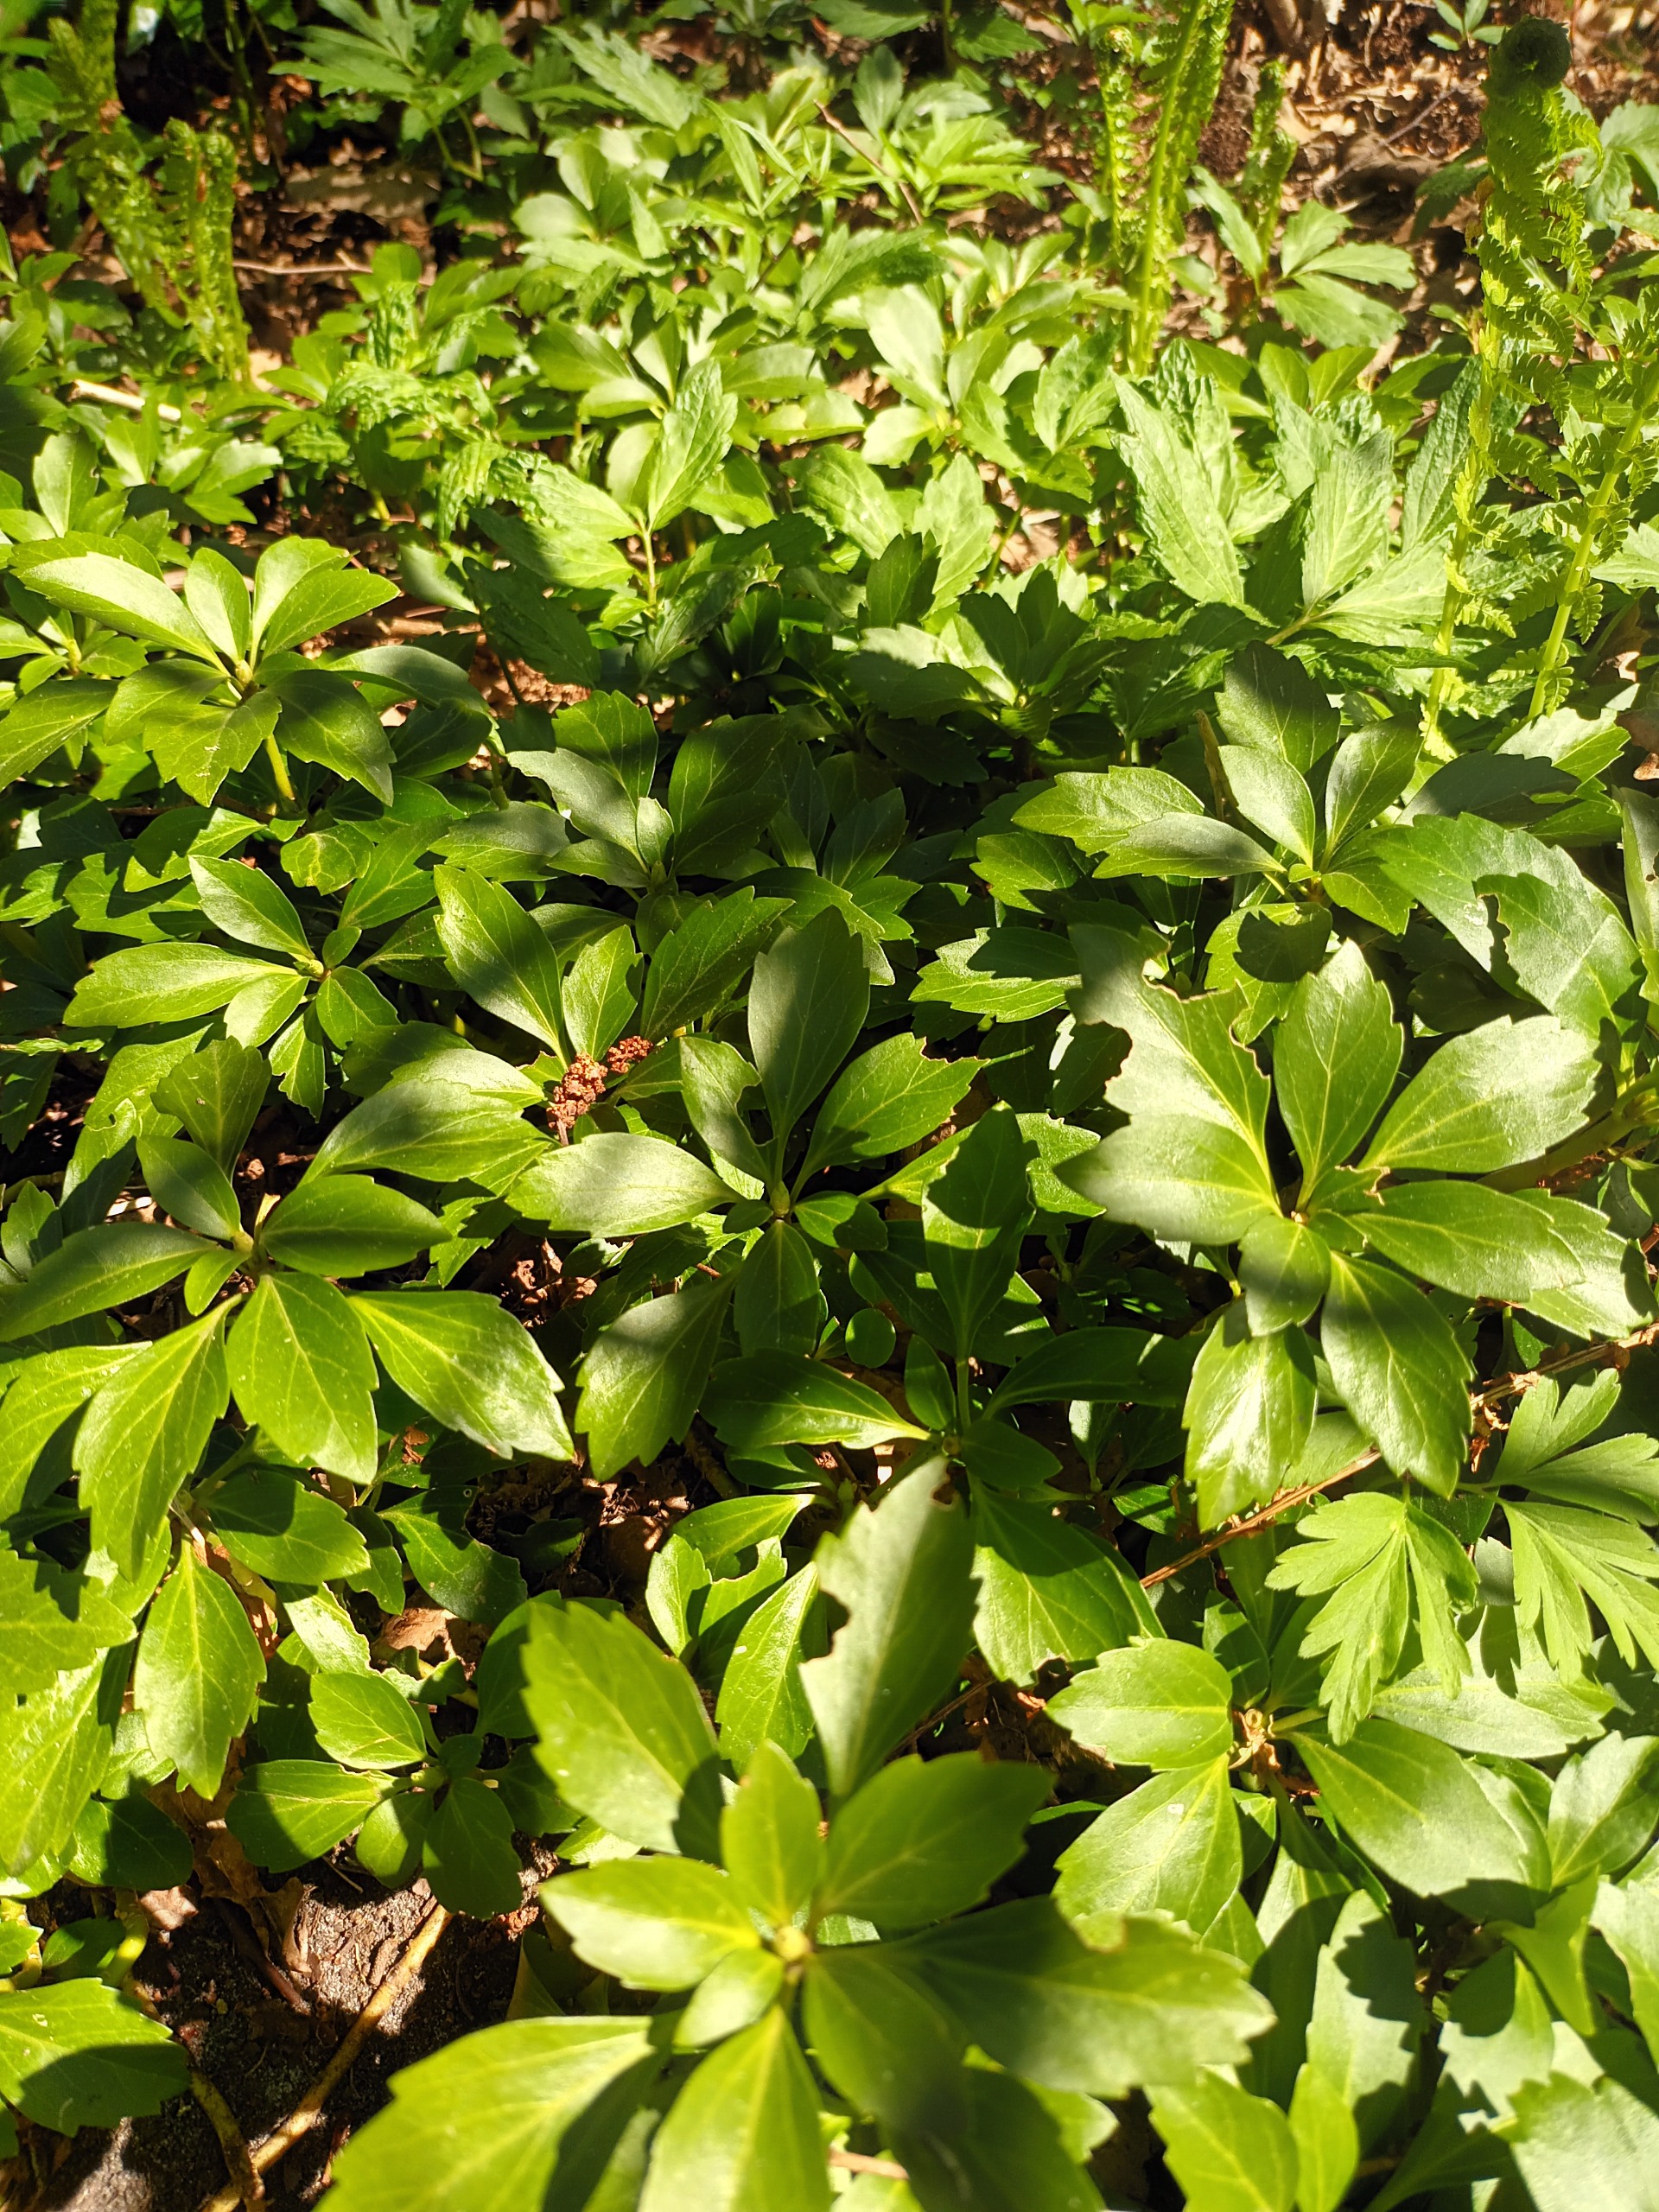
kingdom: Plantae
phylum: Tracheophyta
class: Magnoliopsida
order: Buxales
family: Buxaceae
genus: Pachysandra
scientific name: Pachysandra terminalis
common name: Vinterglans
